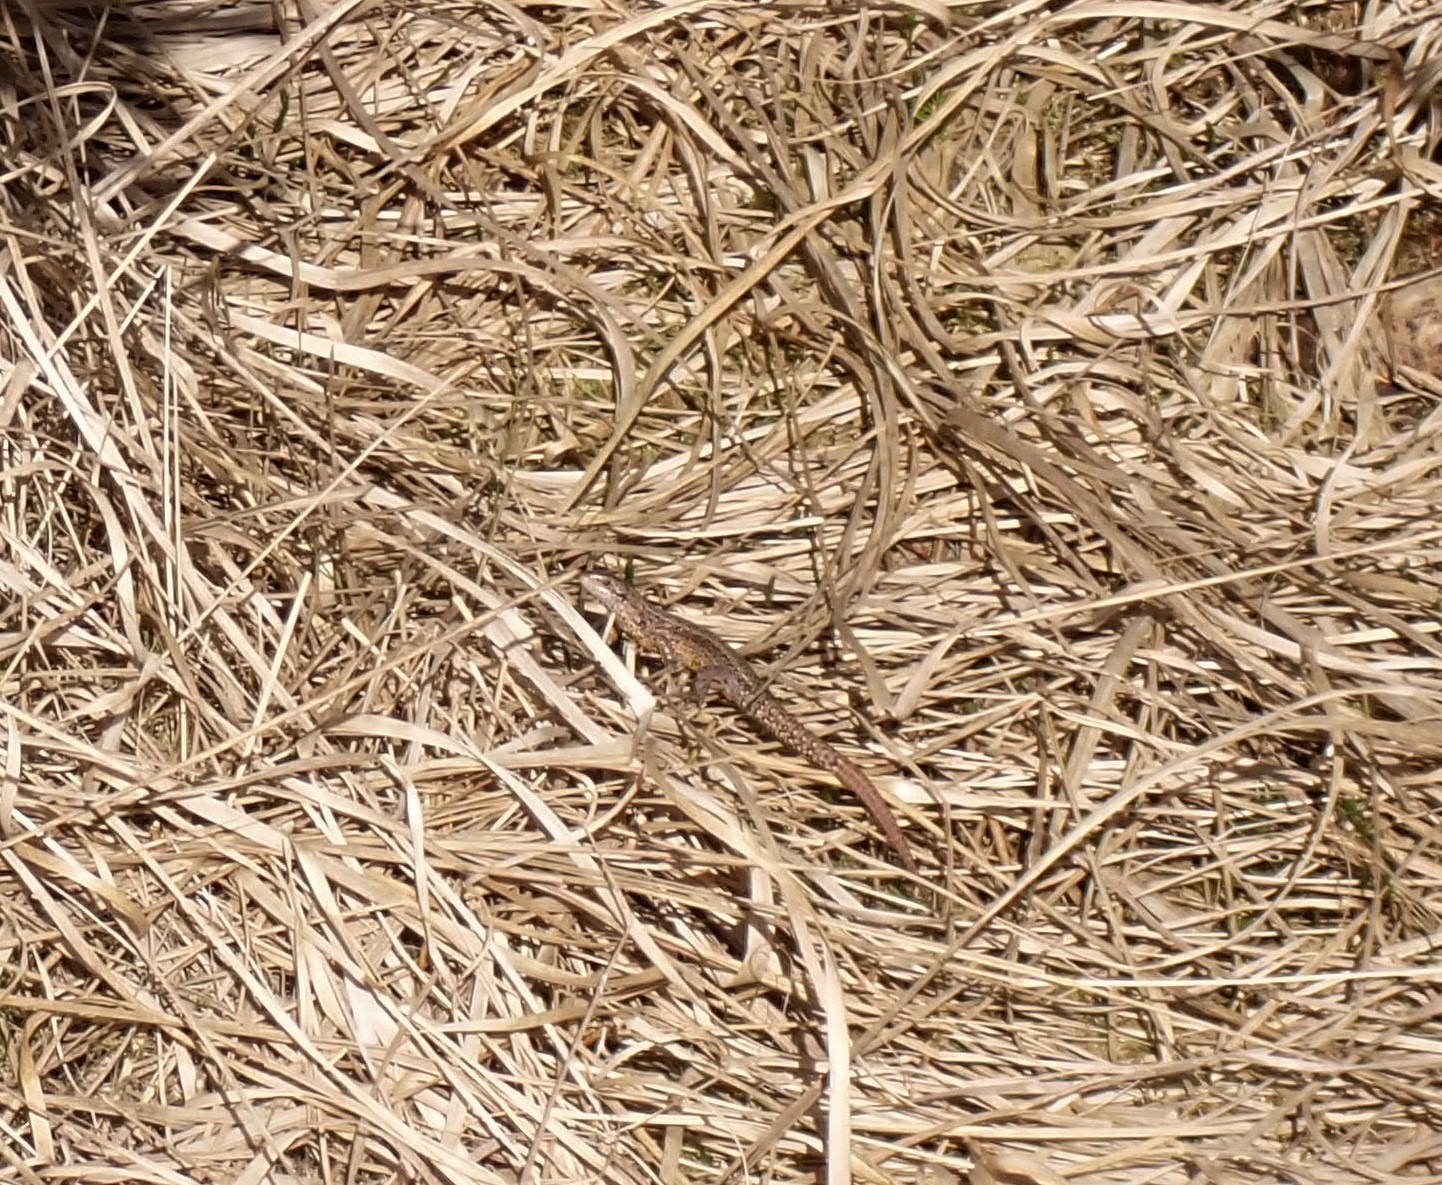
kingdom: Animalia
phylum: Chordata
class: Squamata
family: Lacertidae
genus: Zootoca
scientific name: Zootoca vivipara
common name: Skovfirben
